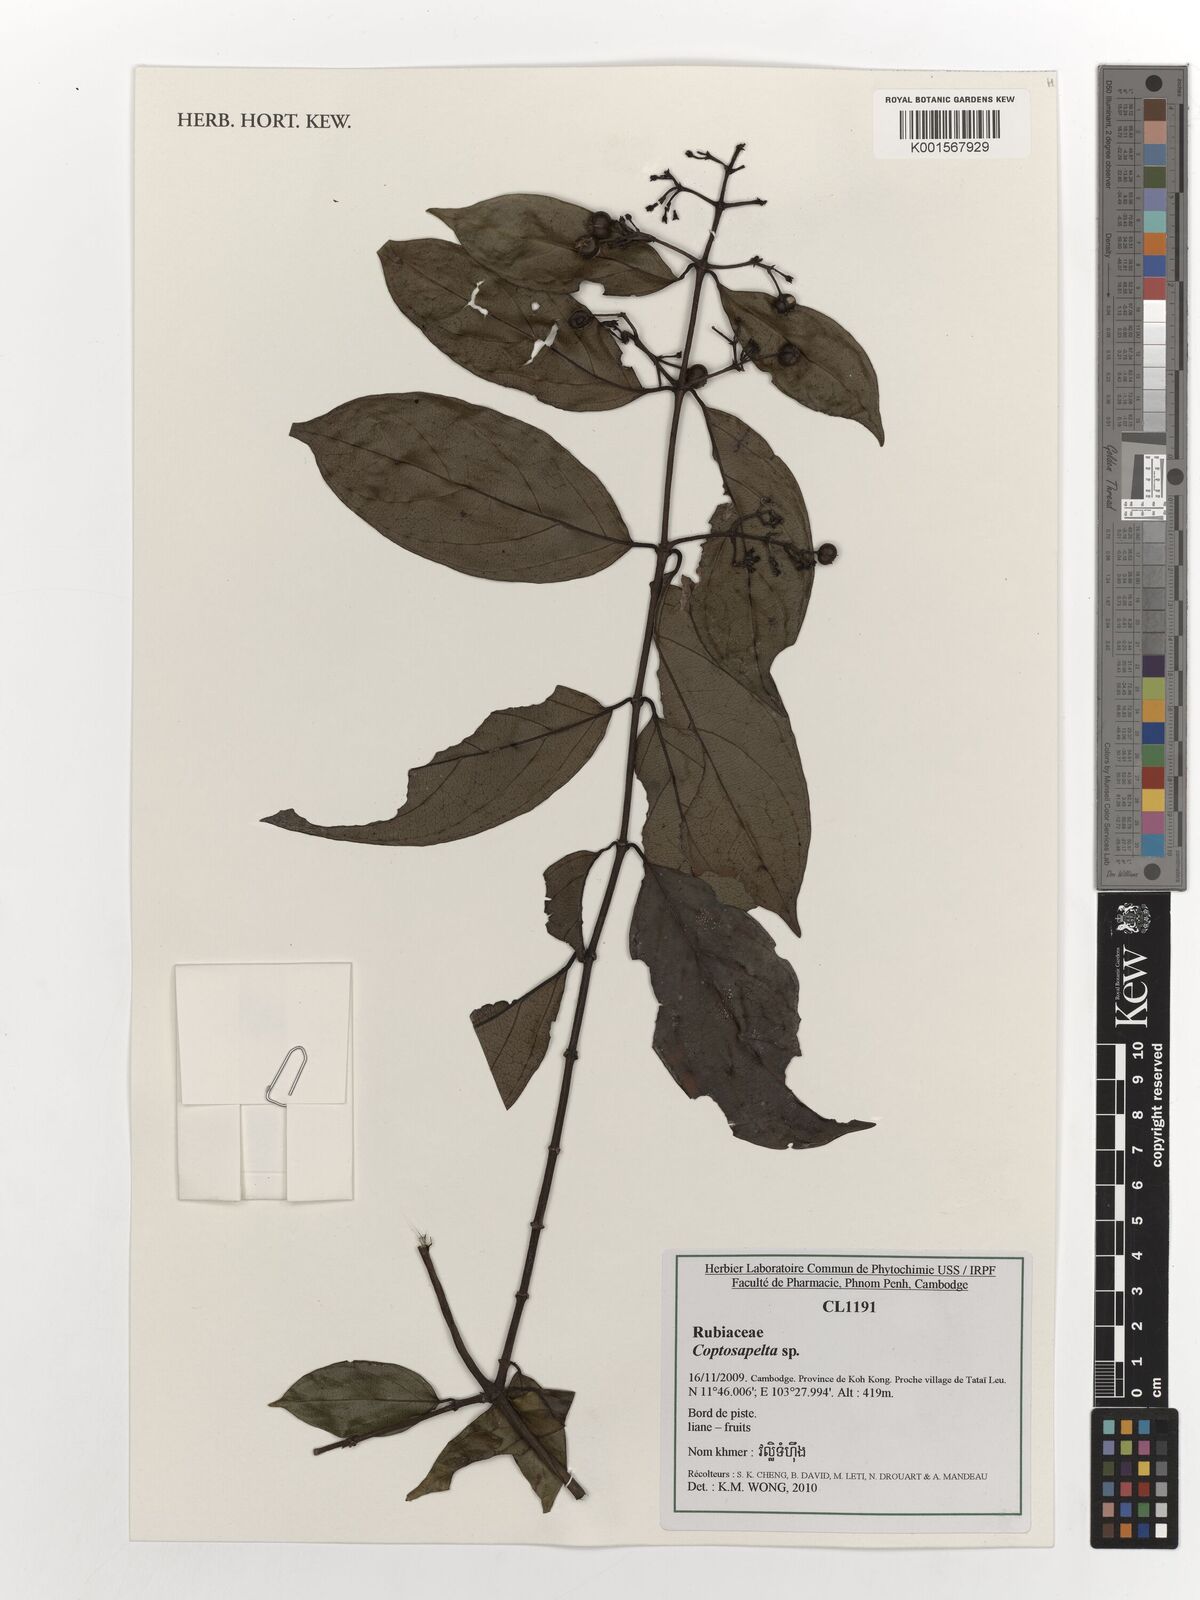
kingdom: Plantae
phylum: Tracheophyta
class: Magnoliopsida
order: Gentianales
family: Rubiaceae
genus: Coptosapelta
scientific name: Coptosapelta
